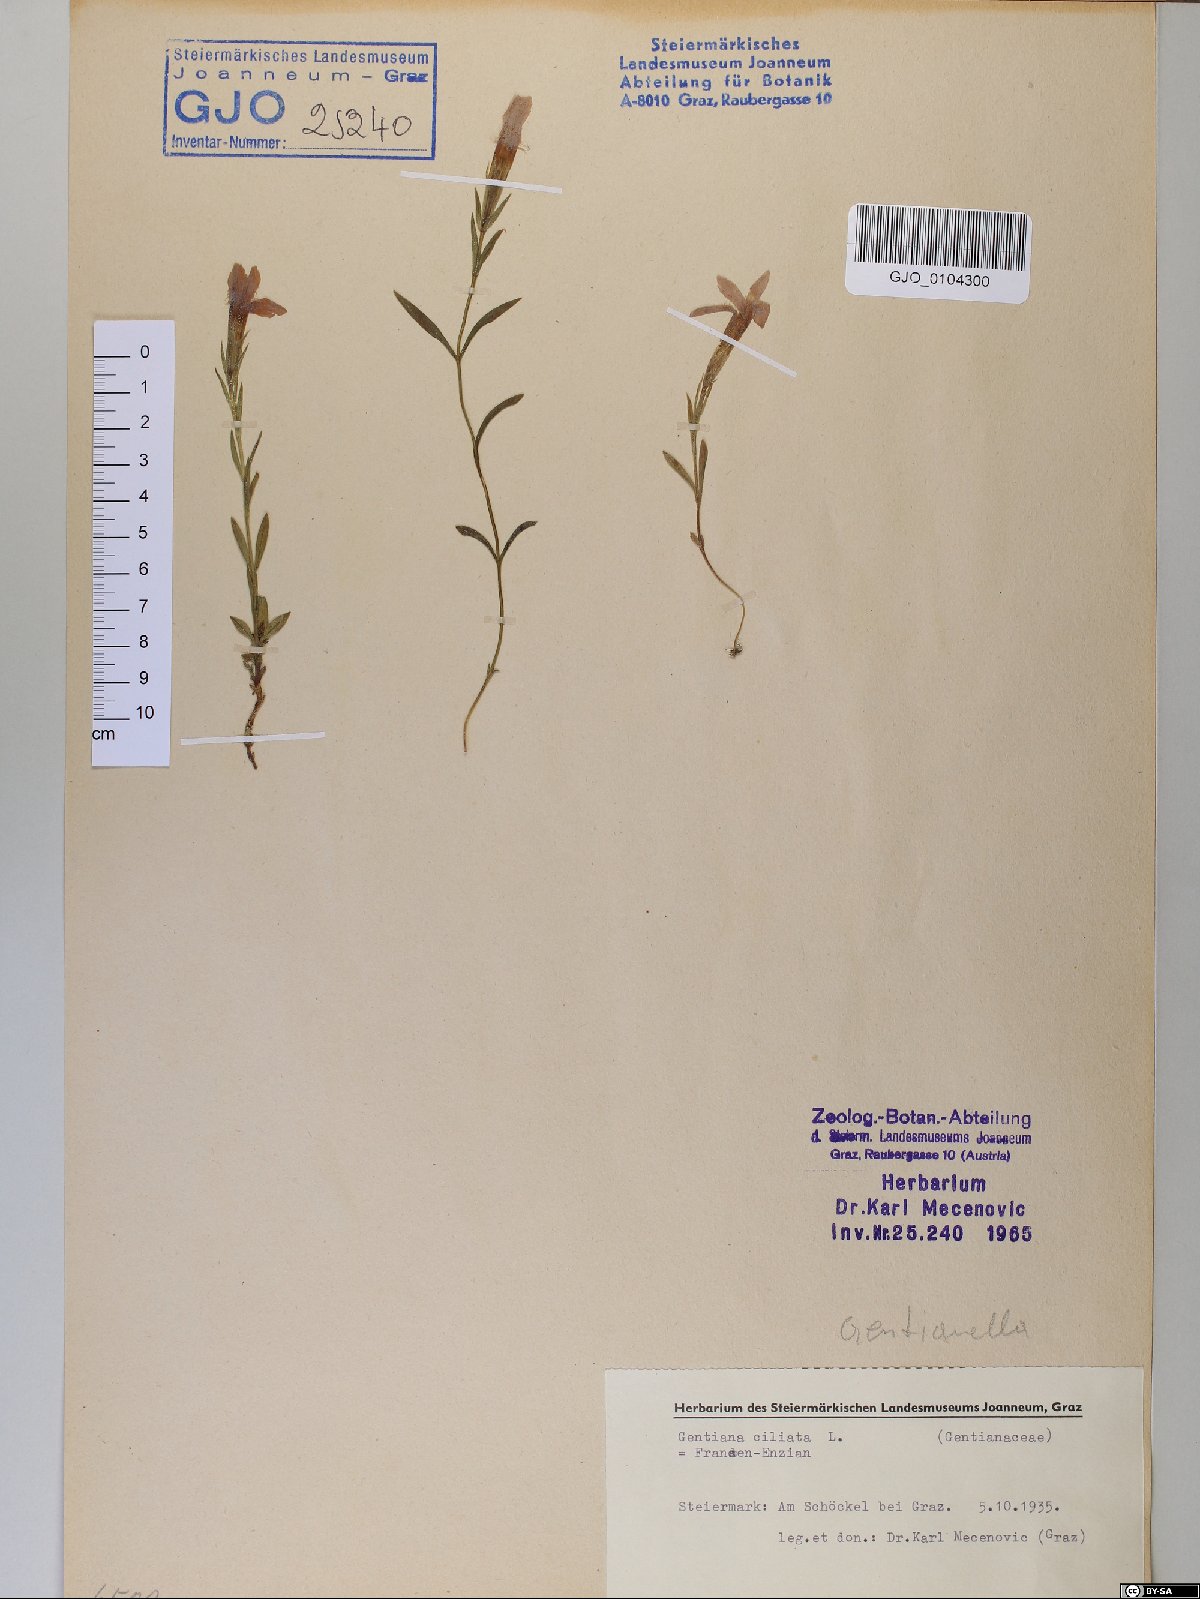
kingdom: Plantae
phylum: Tracheophyta
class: Magnoliopsida
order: Gentianales
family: Gentianaceae
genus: Gentianopsis
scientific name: Gentianopsis ciliata
